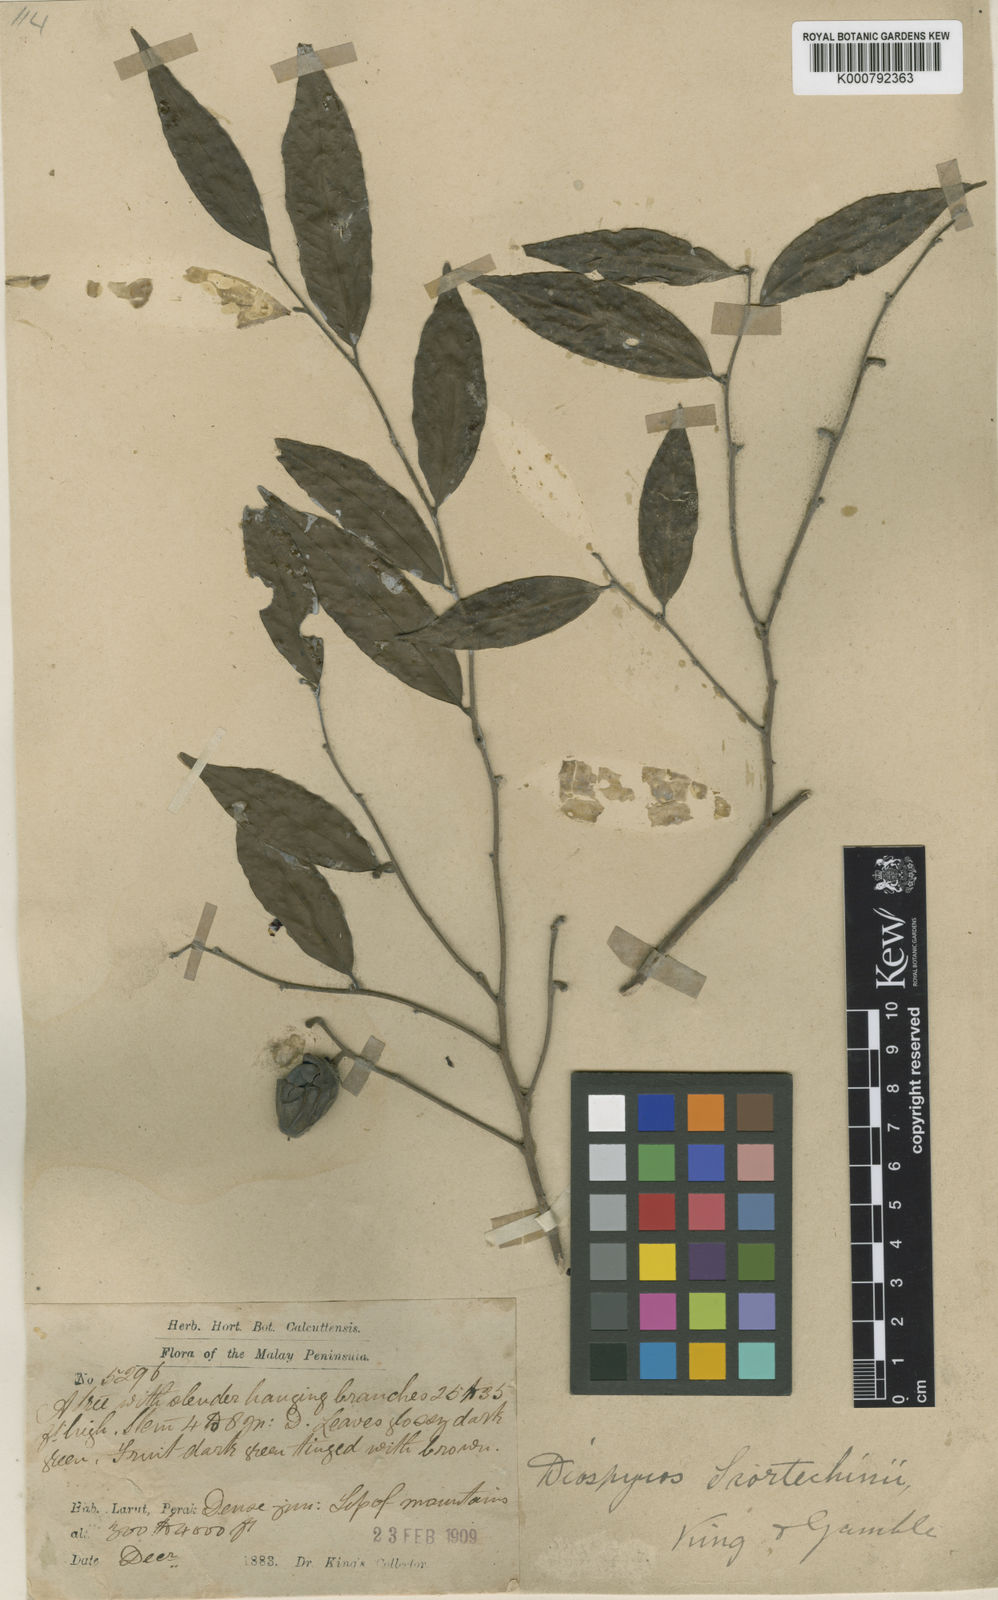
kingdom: Plantae
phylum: Tracheophyta
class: Magnoliopsida
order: Ericales
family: Ebenaceae
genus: Diospyros
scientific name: Diospyros scortechinii
